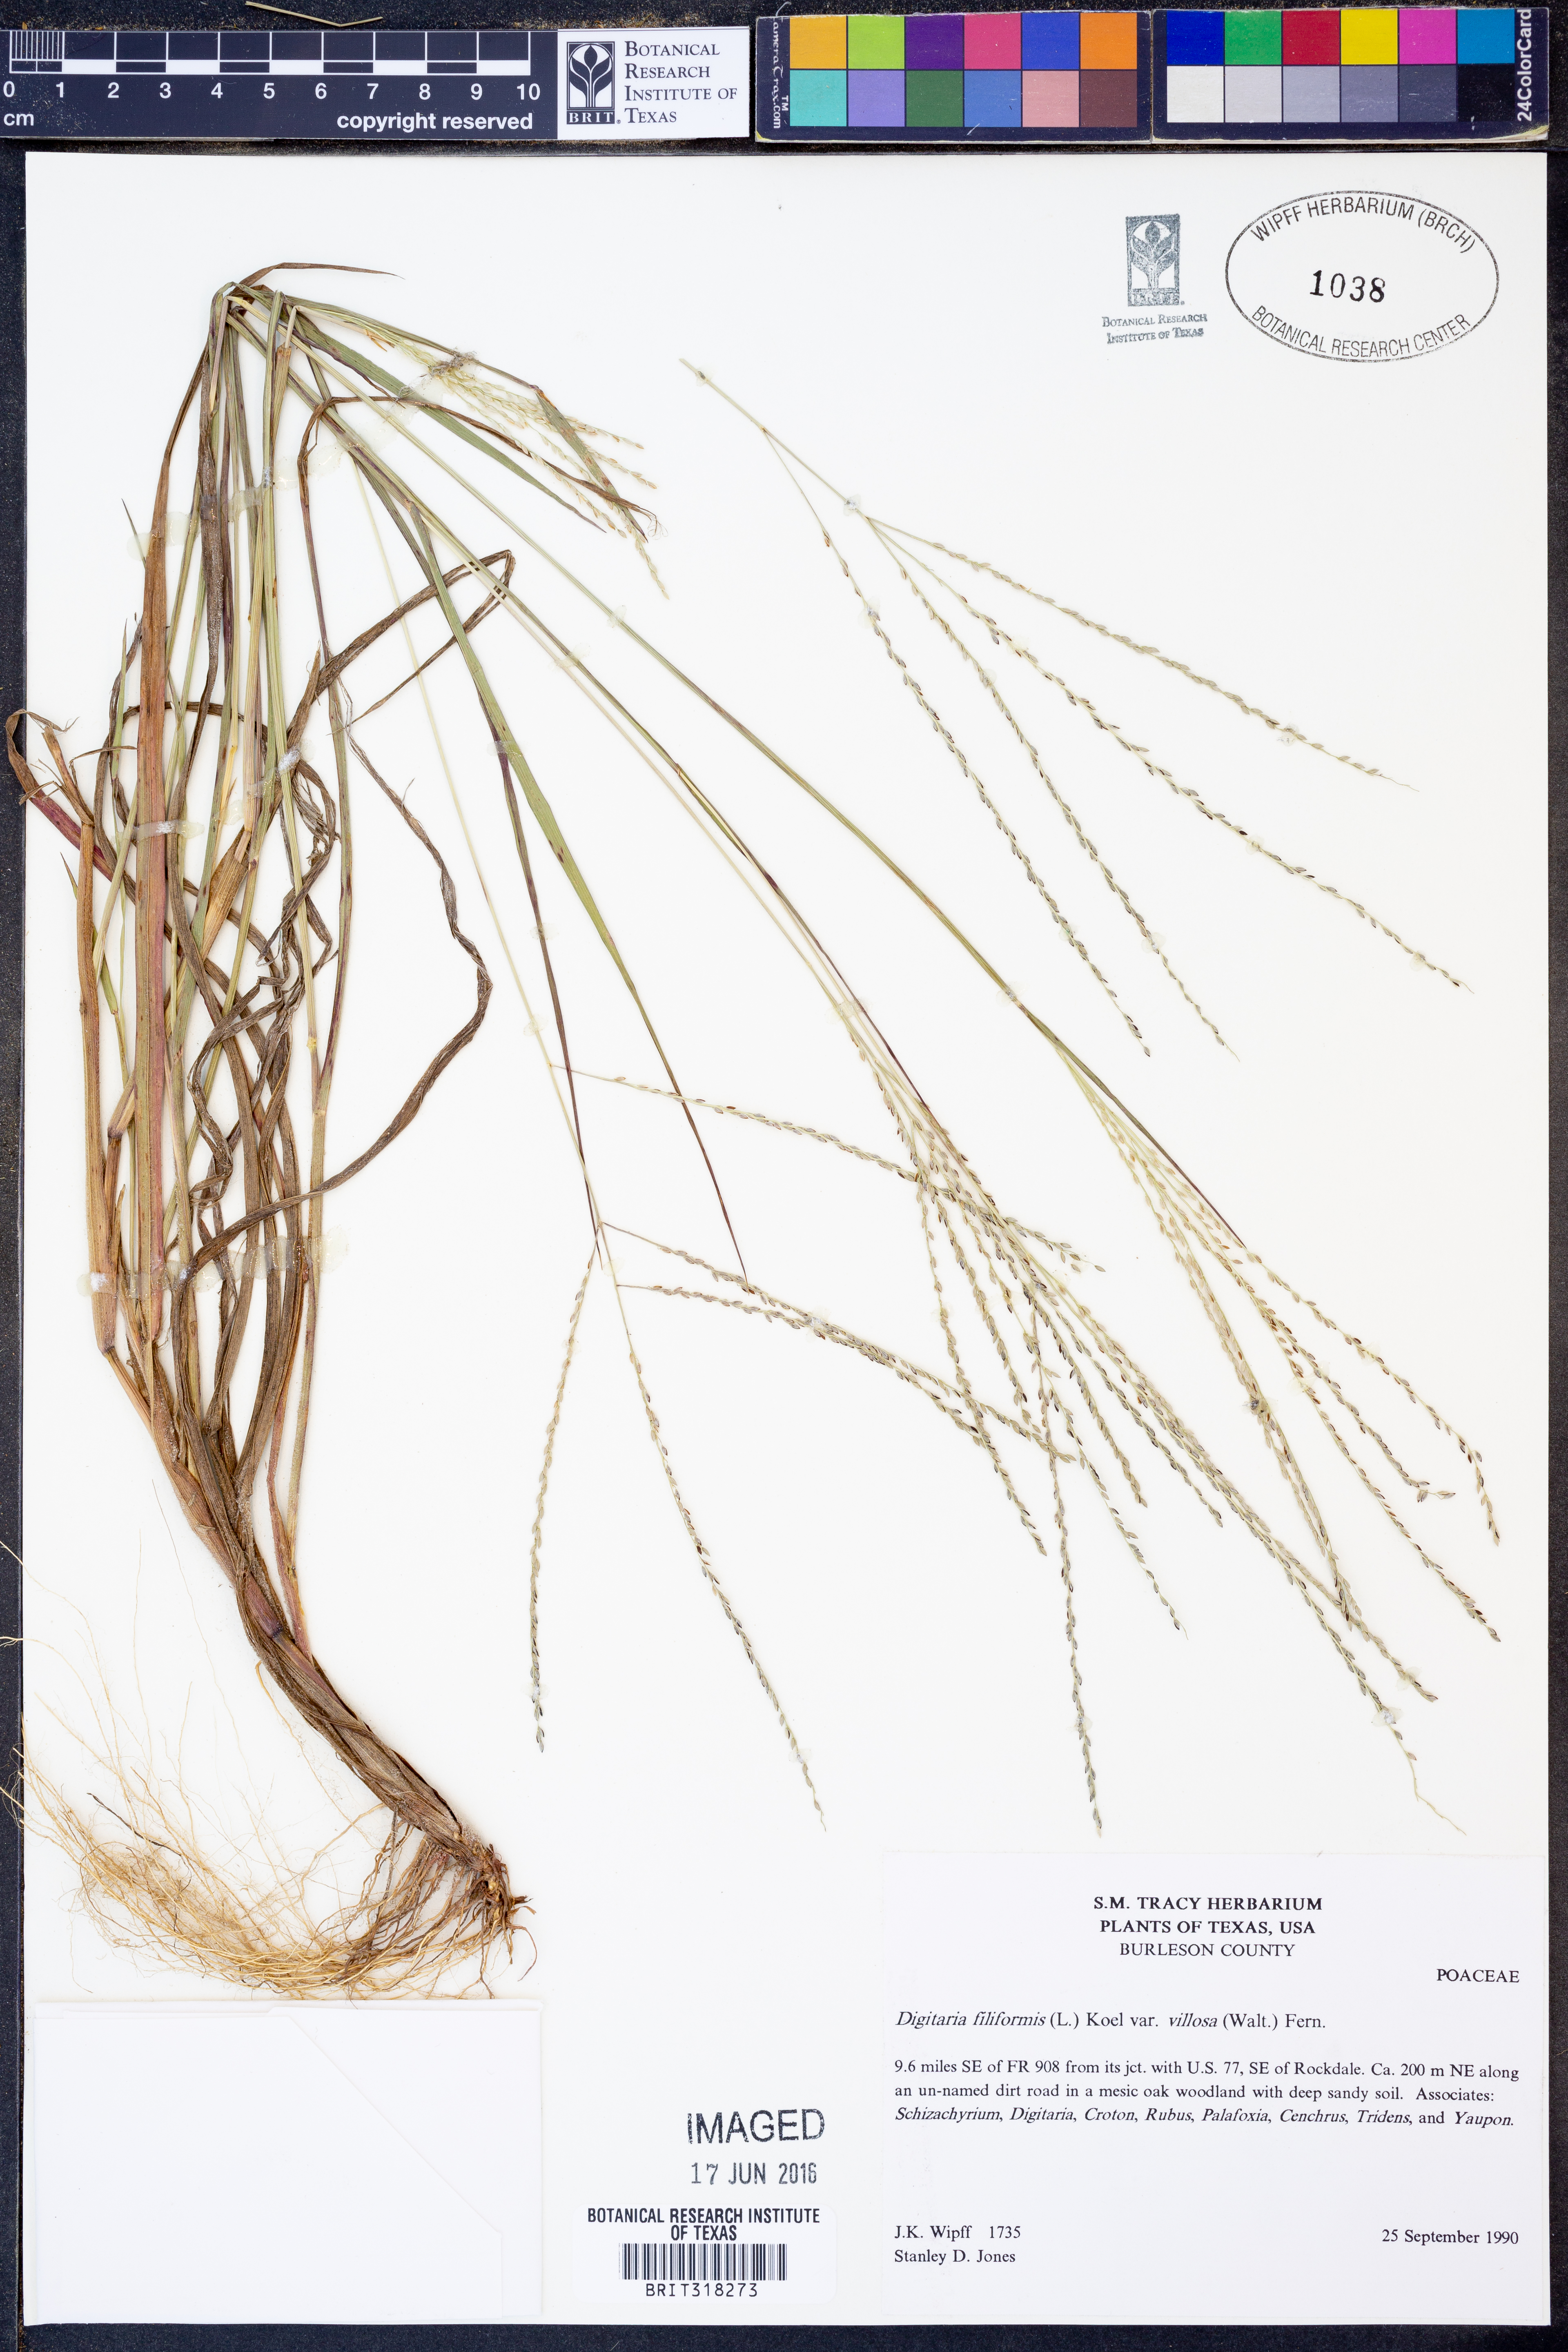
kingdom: Plantae
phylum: Tracheophyta
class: Liliopsida
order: Poales
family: Poaceae
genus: Digitaria
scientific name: Digitaria villosa
